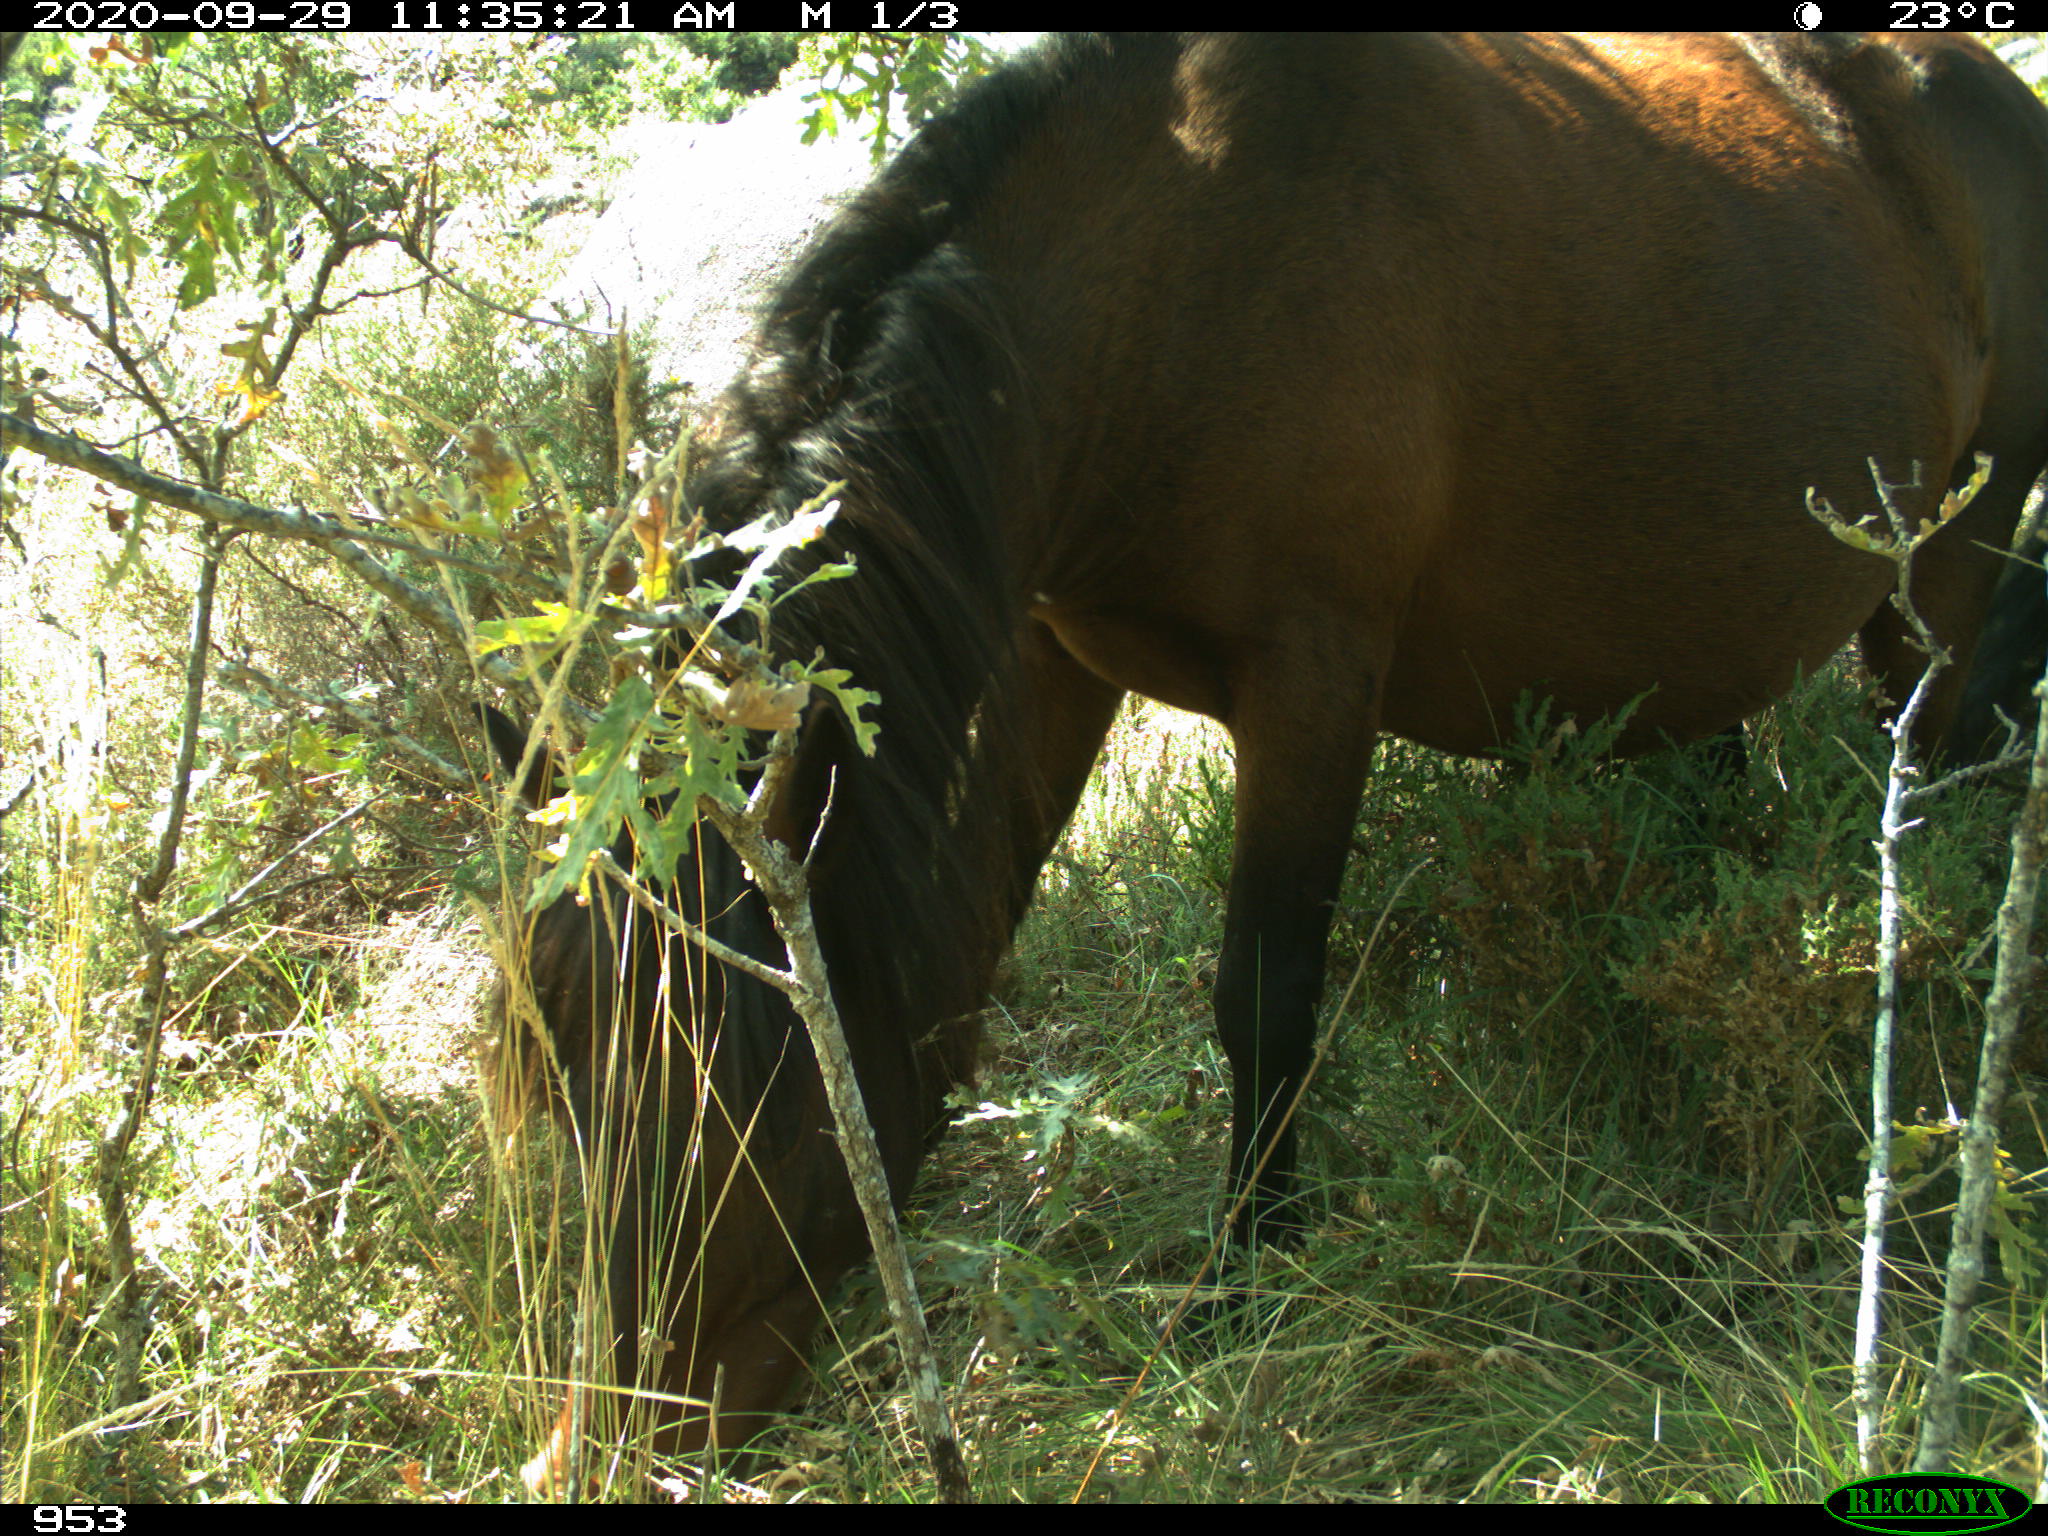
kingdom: Animalia
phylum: Chordata
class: Mammalia
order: Perissodactyla
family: Equidae
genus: Equus
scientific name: Equus caballus
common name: Horse
